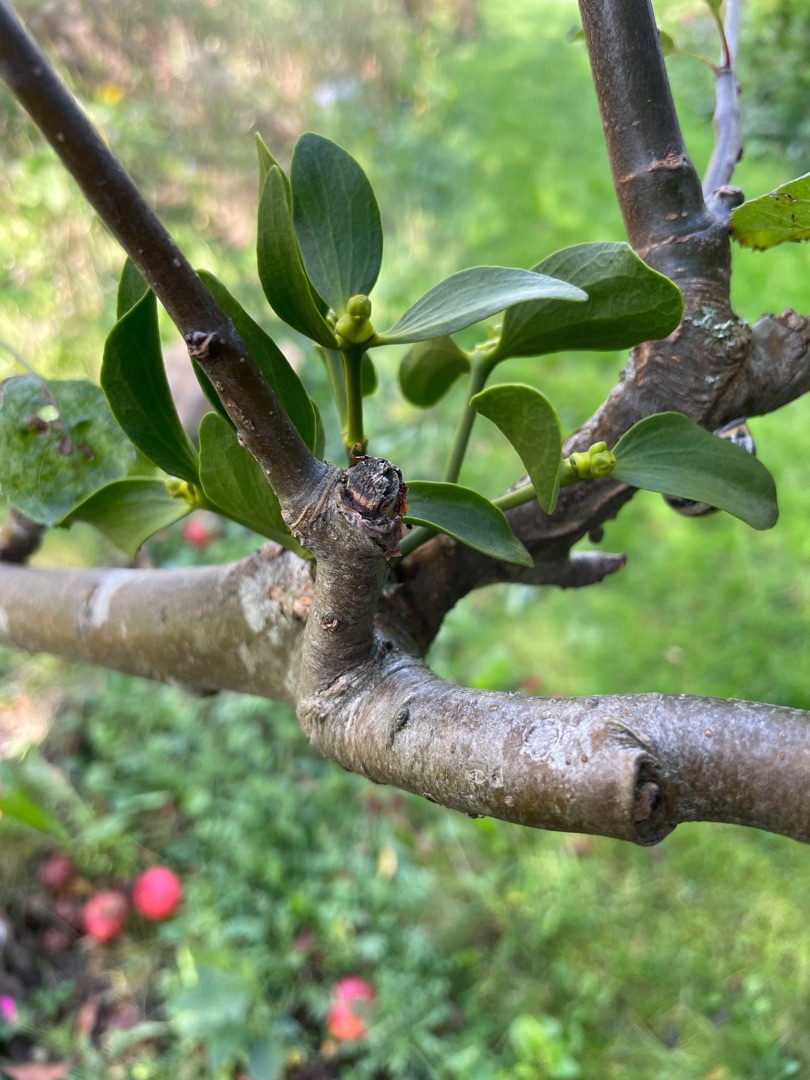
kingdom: Plantae
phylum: Tracheophyta
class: Magnoliopsida
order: Santalales
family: Viscaceae
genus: Viscum
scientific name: Viscum album
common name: Mistelten
